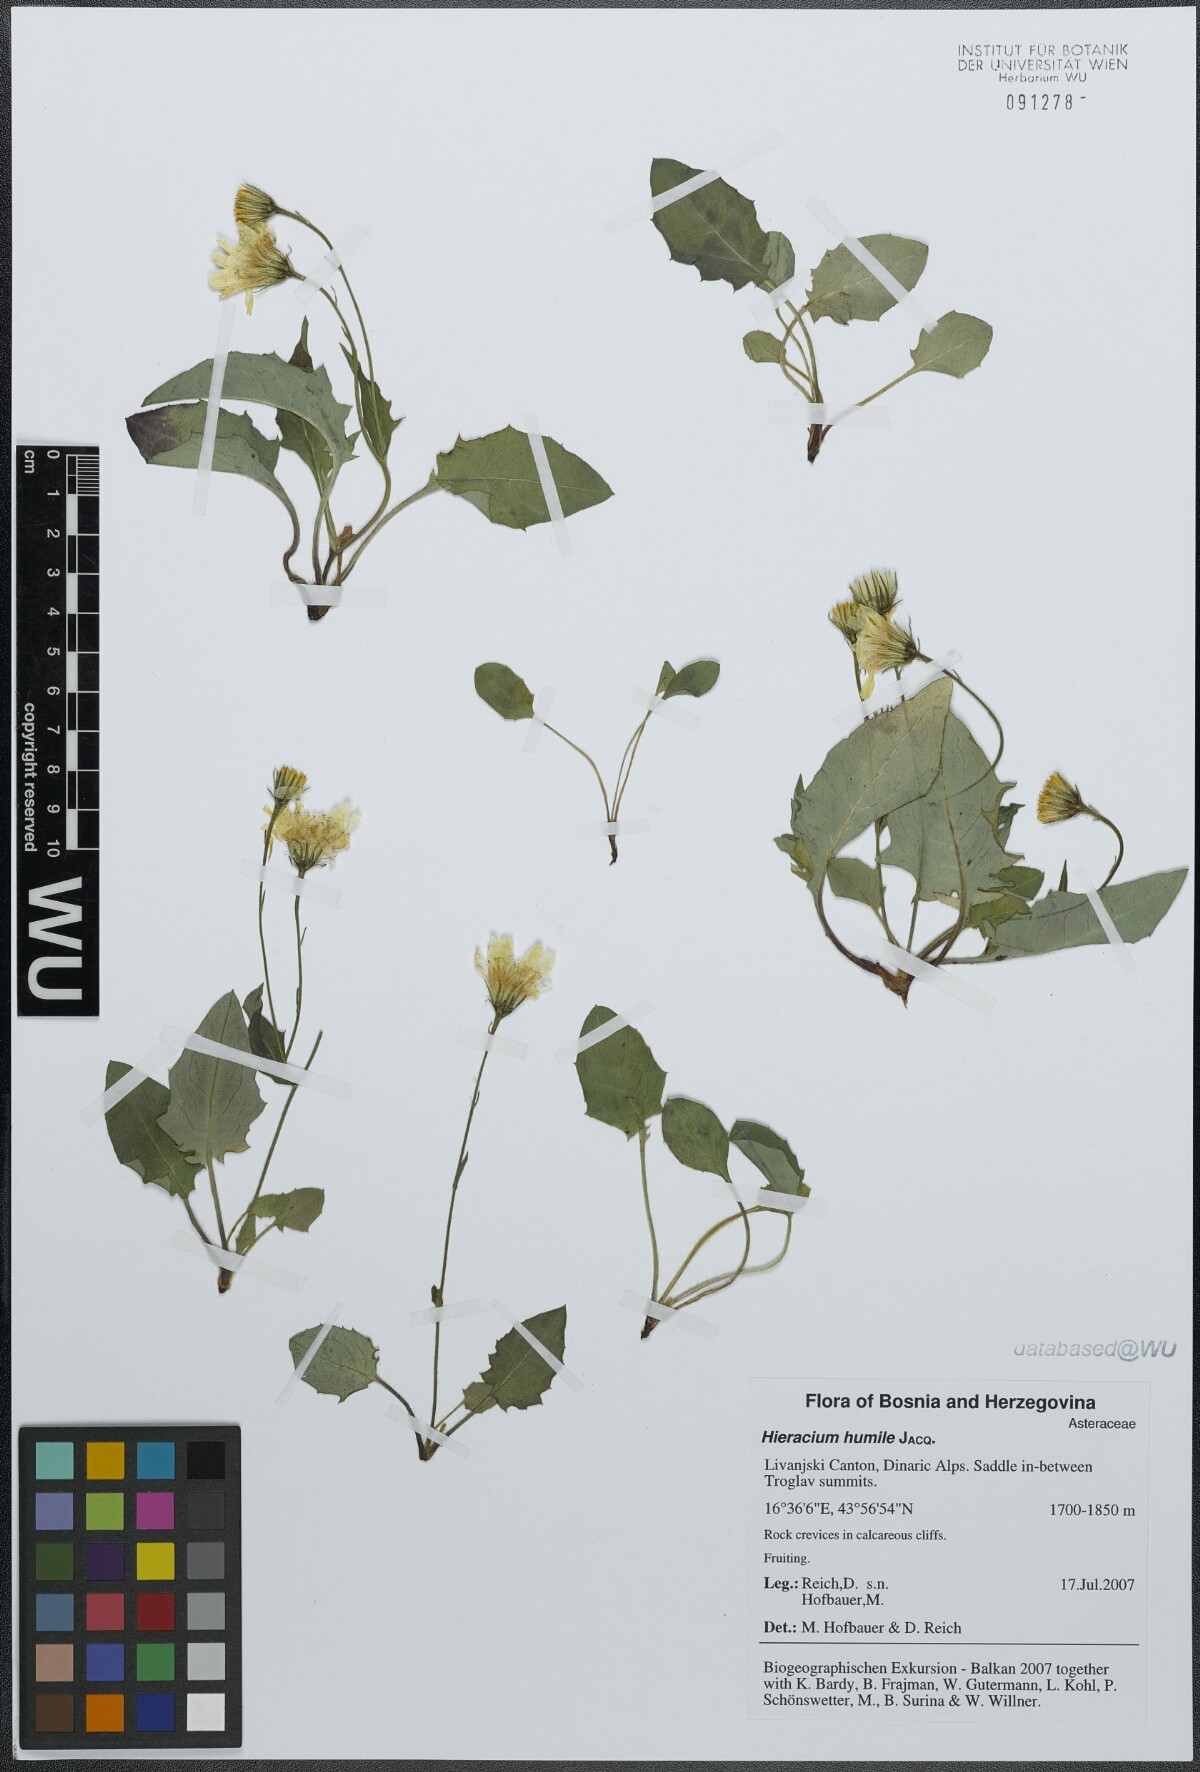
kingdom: Plantae
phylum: Tracheophyta
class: Magnoliopsida
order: Asterales
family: Asteraceae
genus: Hieracium
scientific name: Hieracium humile
